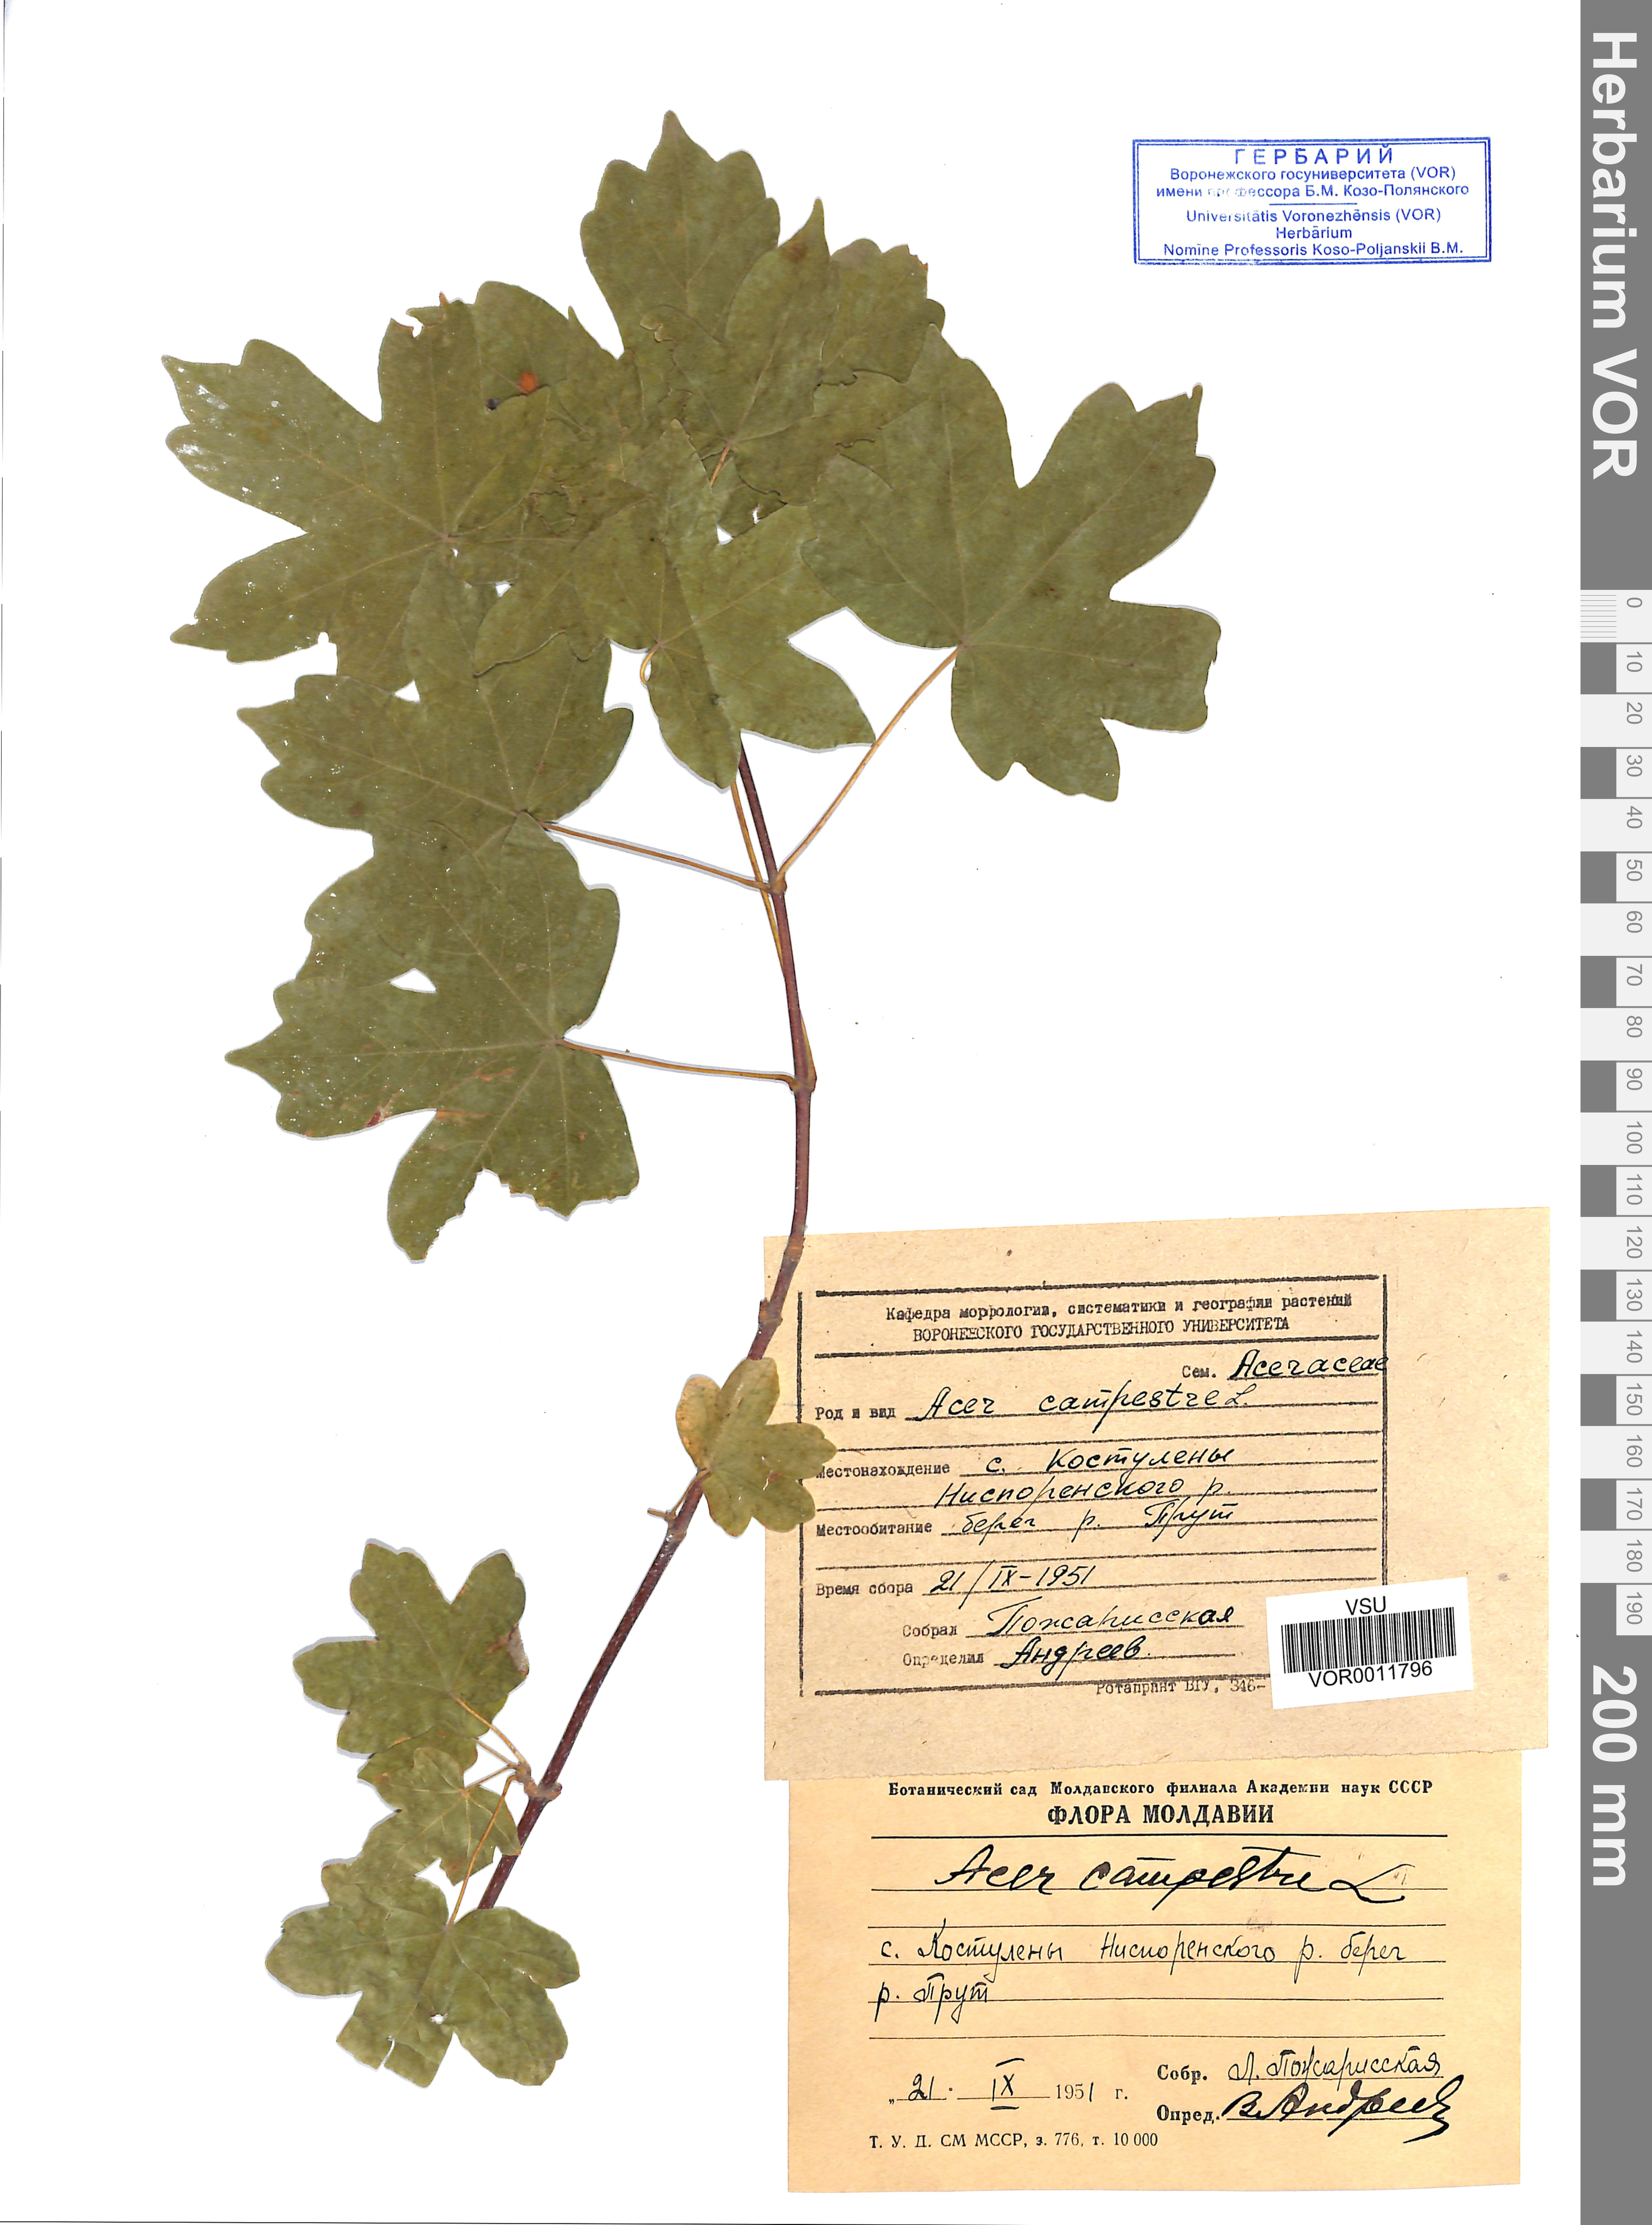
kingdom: Plantae
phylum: Tracheophyta
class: Magnoliopsida
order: Sapindales
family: Sapindaceae
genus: Acer
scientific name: Acer campestre
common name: Field maple
